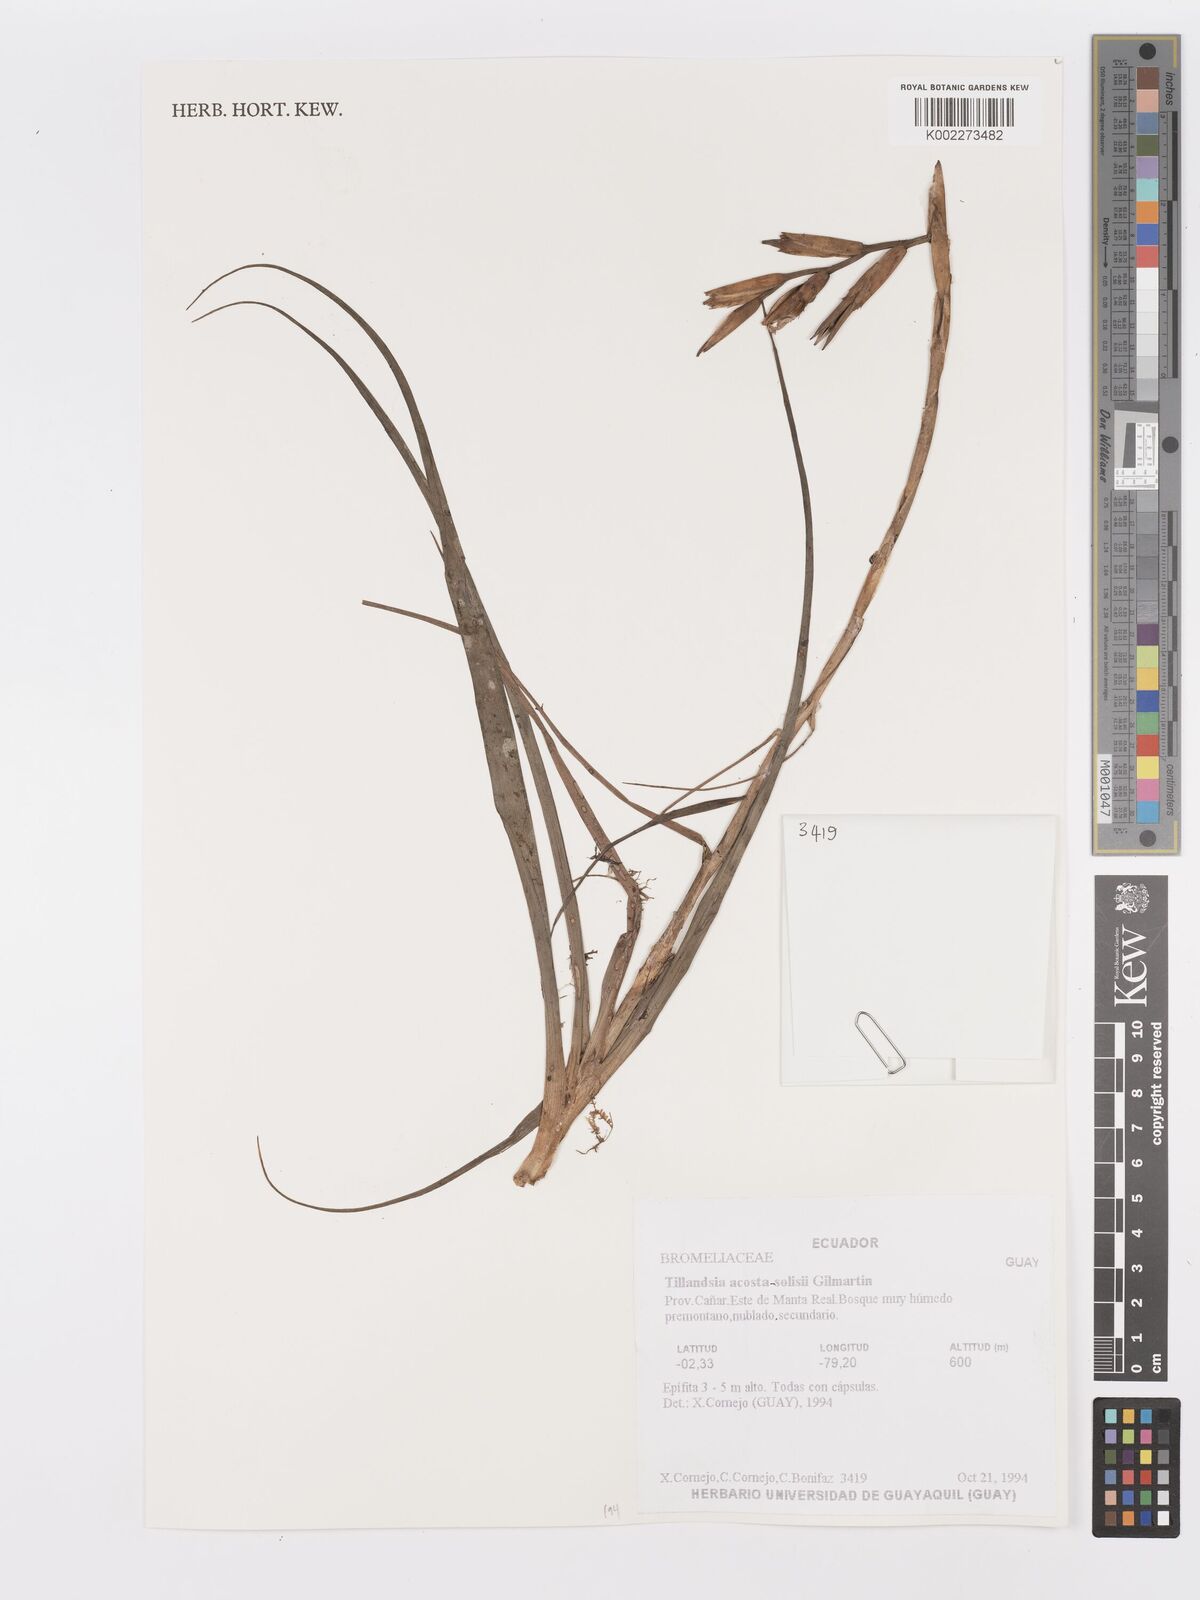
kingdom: Plantae
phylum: Tracheophyta
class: Liliopsida
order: Poales
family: Bromeliaceae
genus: Lemeltonia
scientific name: Lemeltonia acosta-solisii
